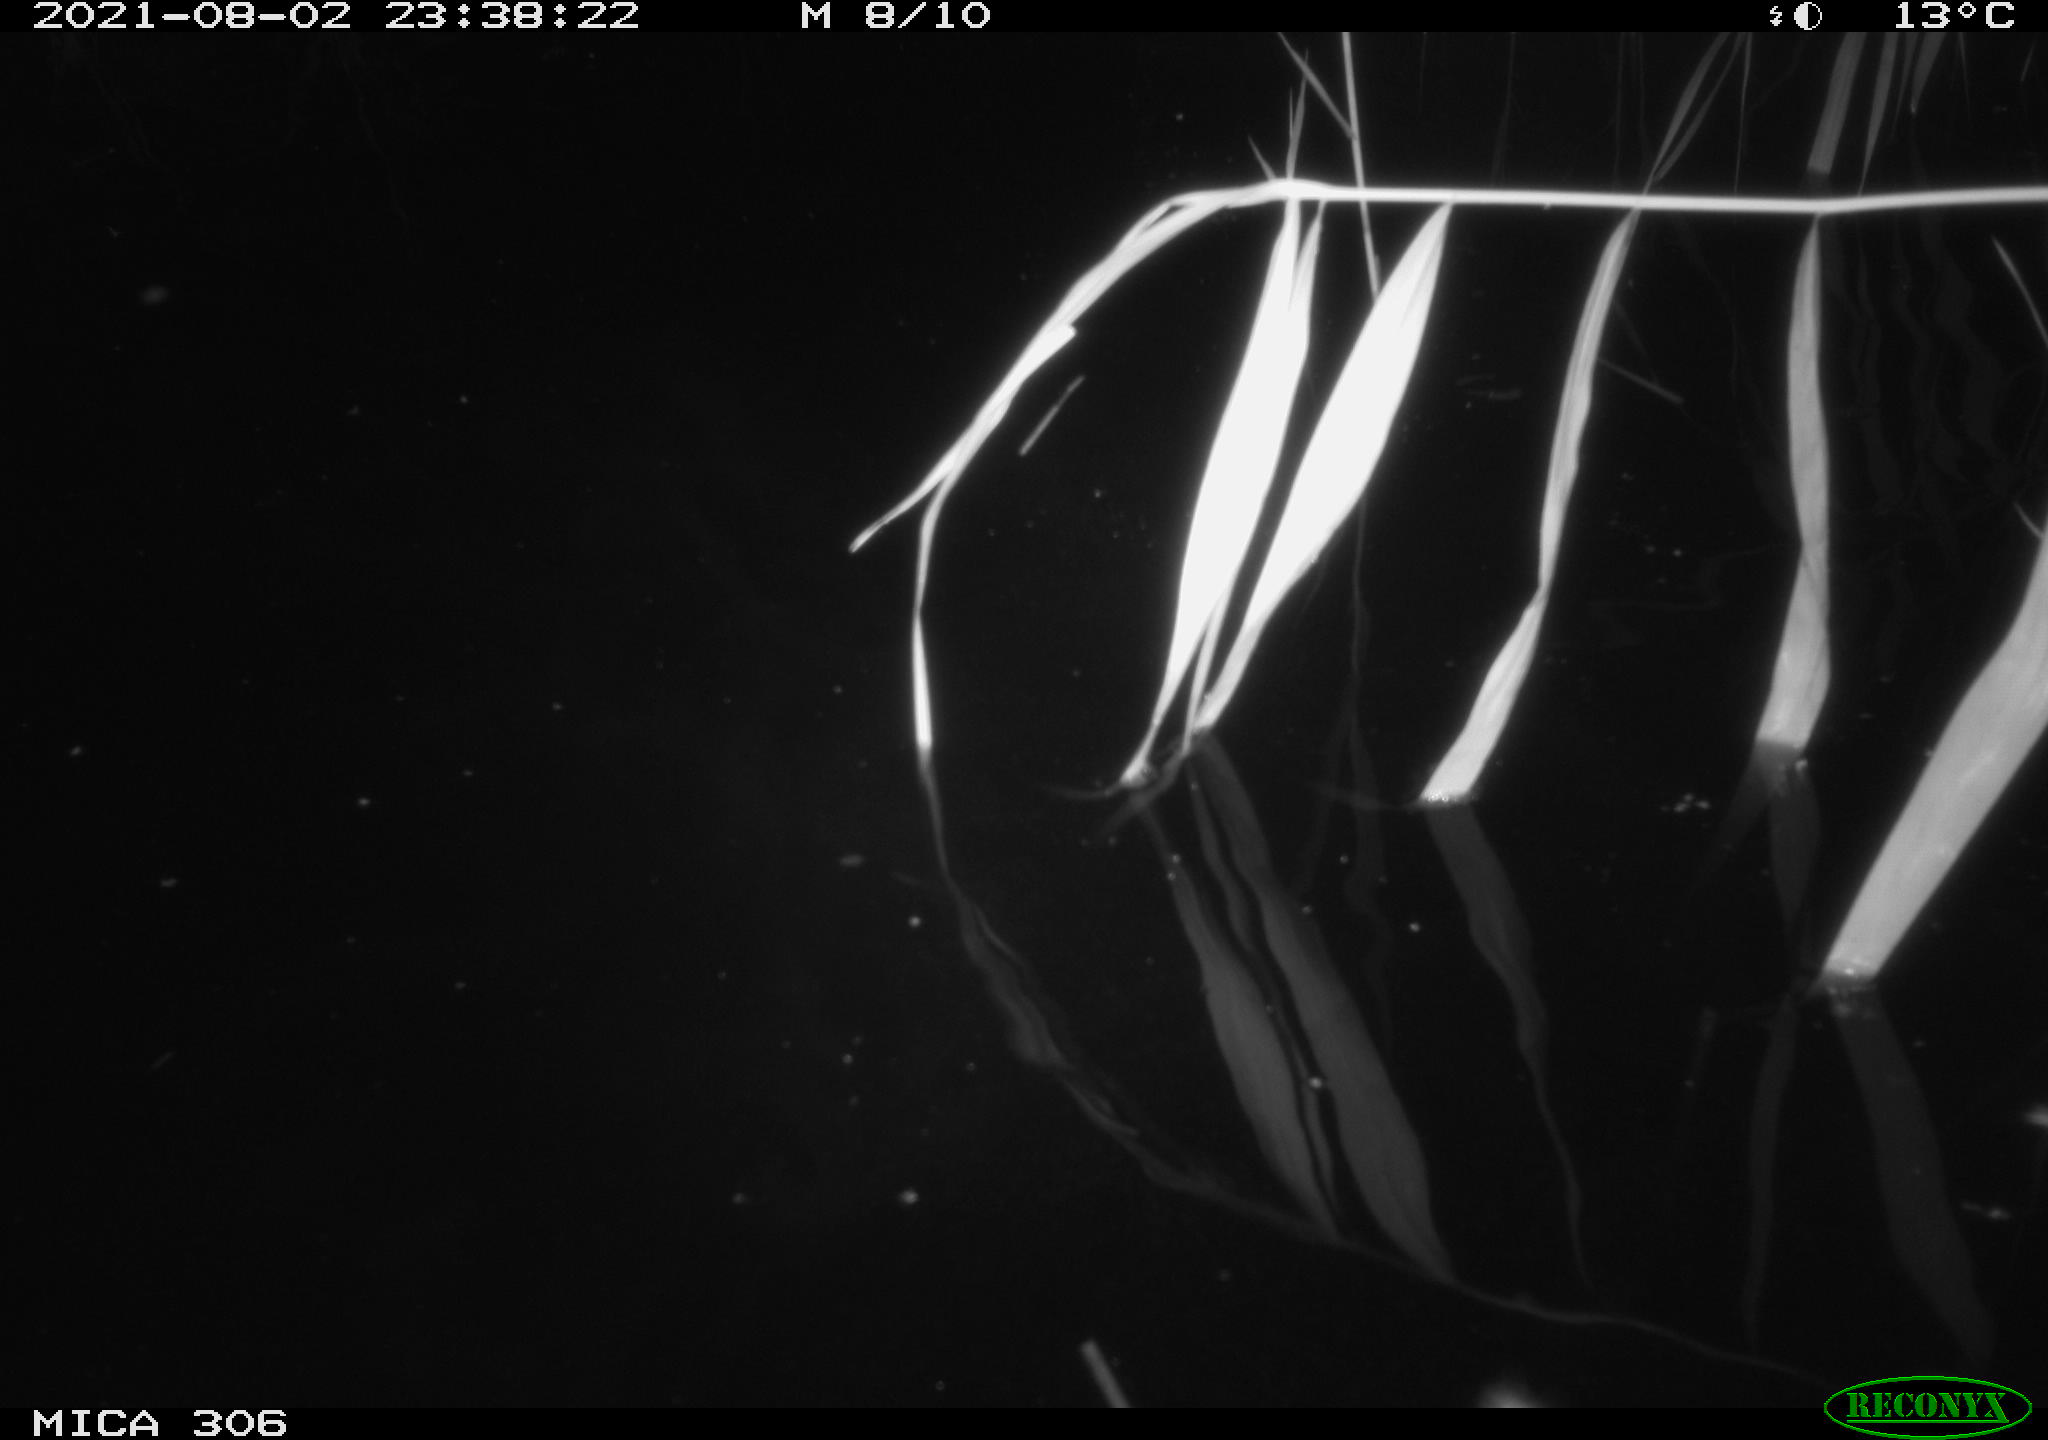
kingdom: Animalia
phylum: Chordata
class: Mammalia
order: Rodentia
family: Cricetidae
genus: Ondatra
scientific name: Ondatra zibethicus
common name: Muskrat
